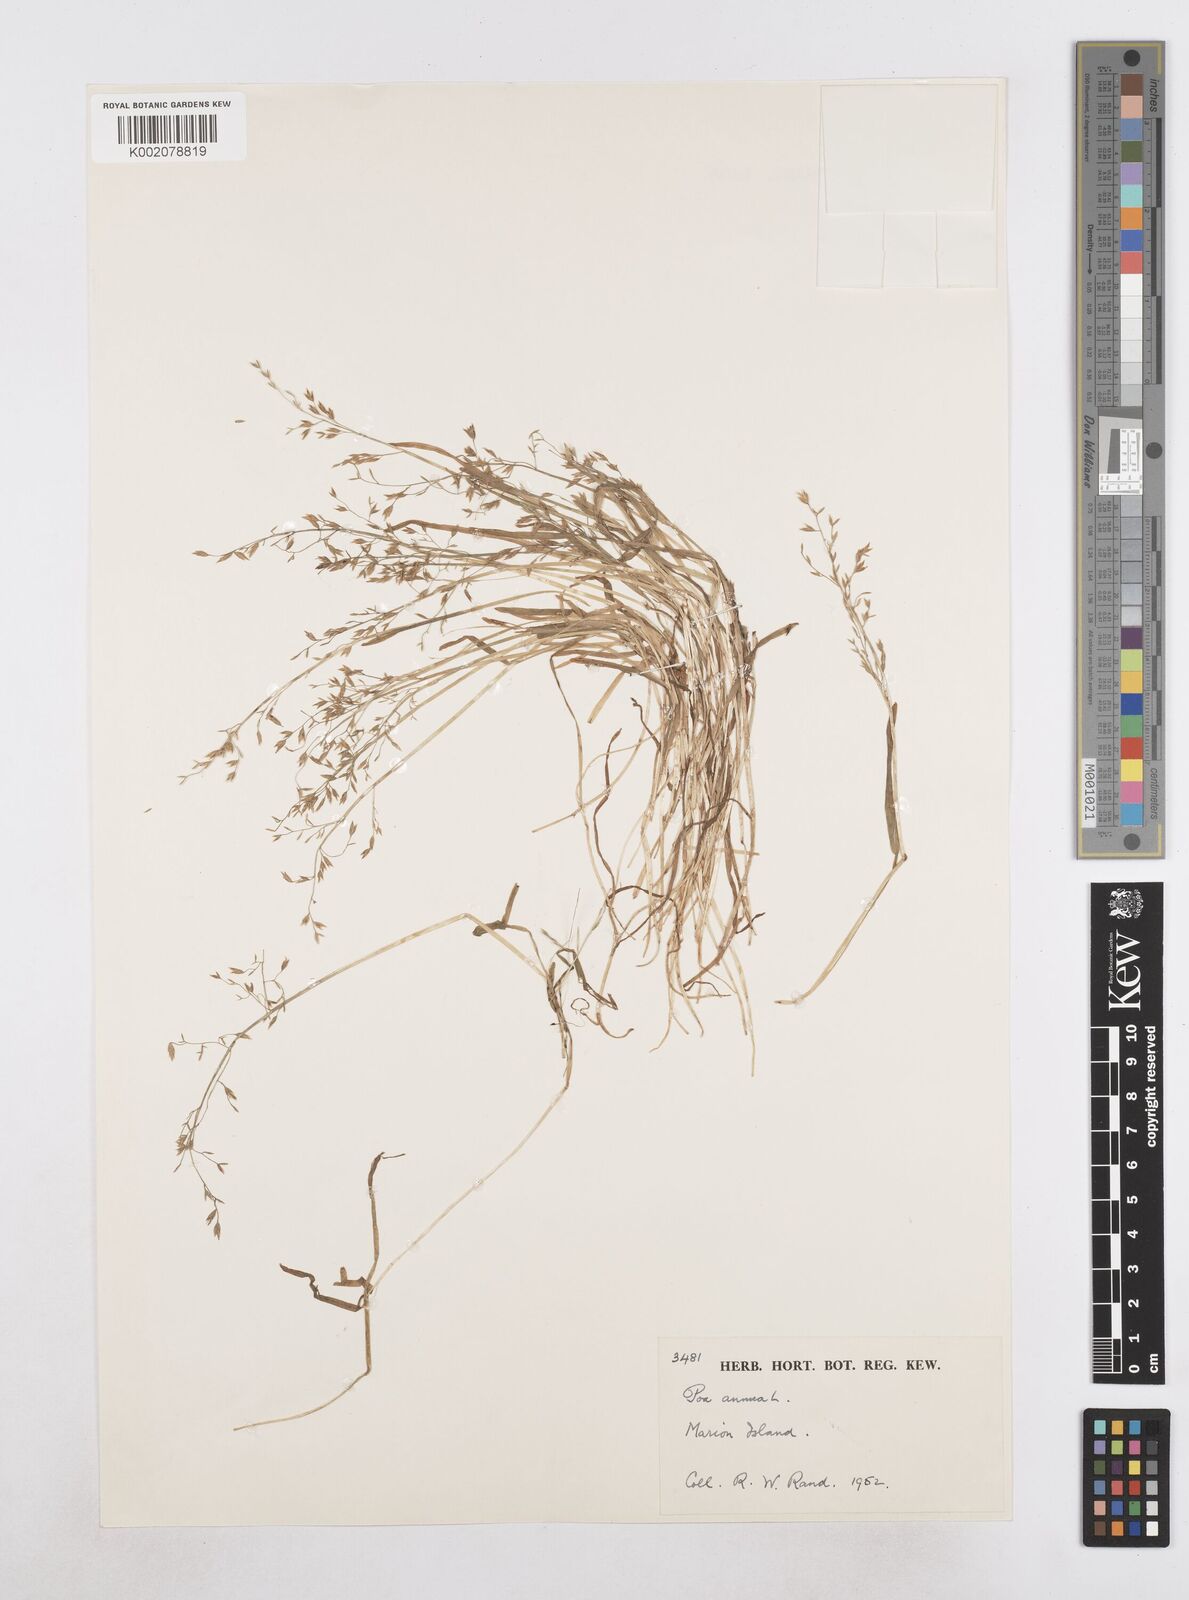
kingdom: Plantae
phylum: Tracheophyta
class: Liliopsida
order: Poales
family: Poaceae
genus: Poa
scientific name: Poa annua
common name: Annual bluegrass
